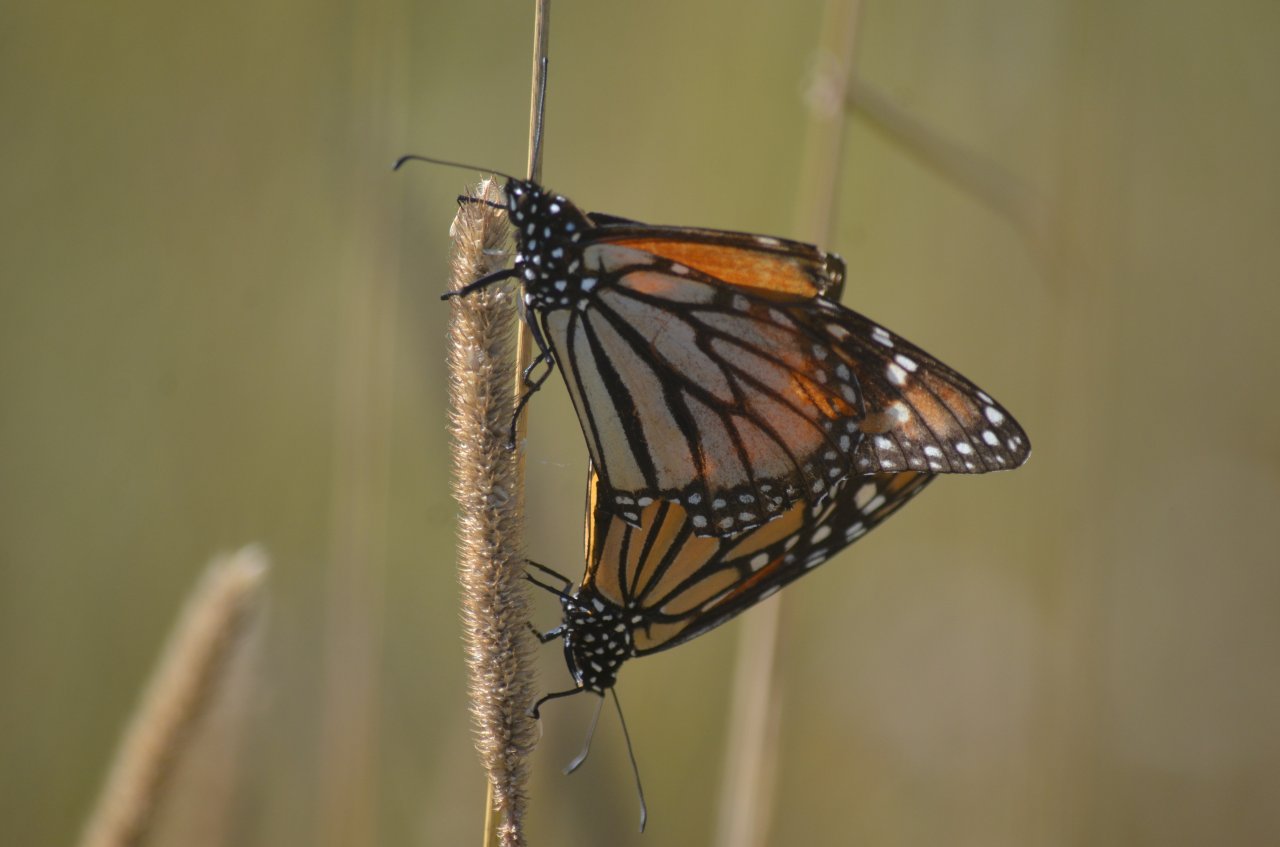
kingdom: Animalia
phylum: Arthropoda
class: Insecta
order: Lepidoptera
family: Nymphalidae
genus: Danaus
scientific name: Danaus plexippus
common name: Monarch
